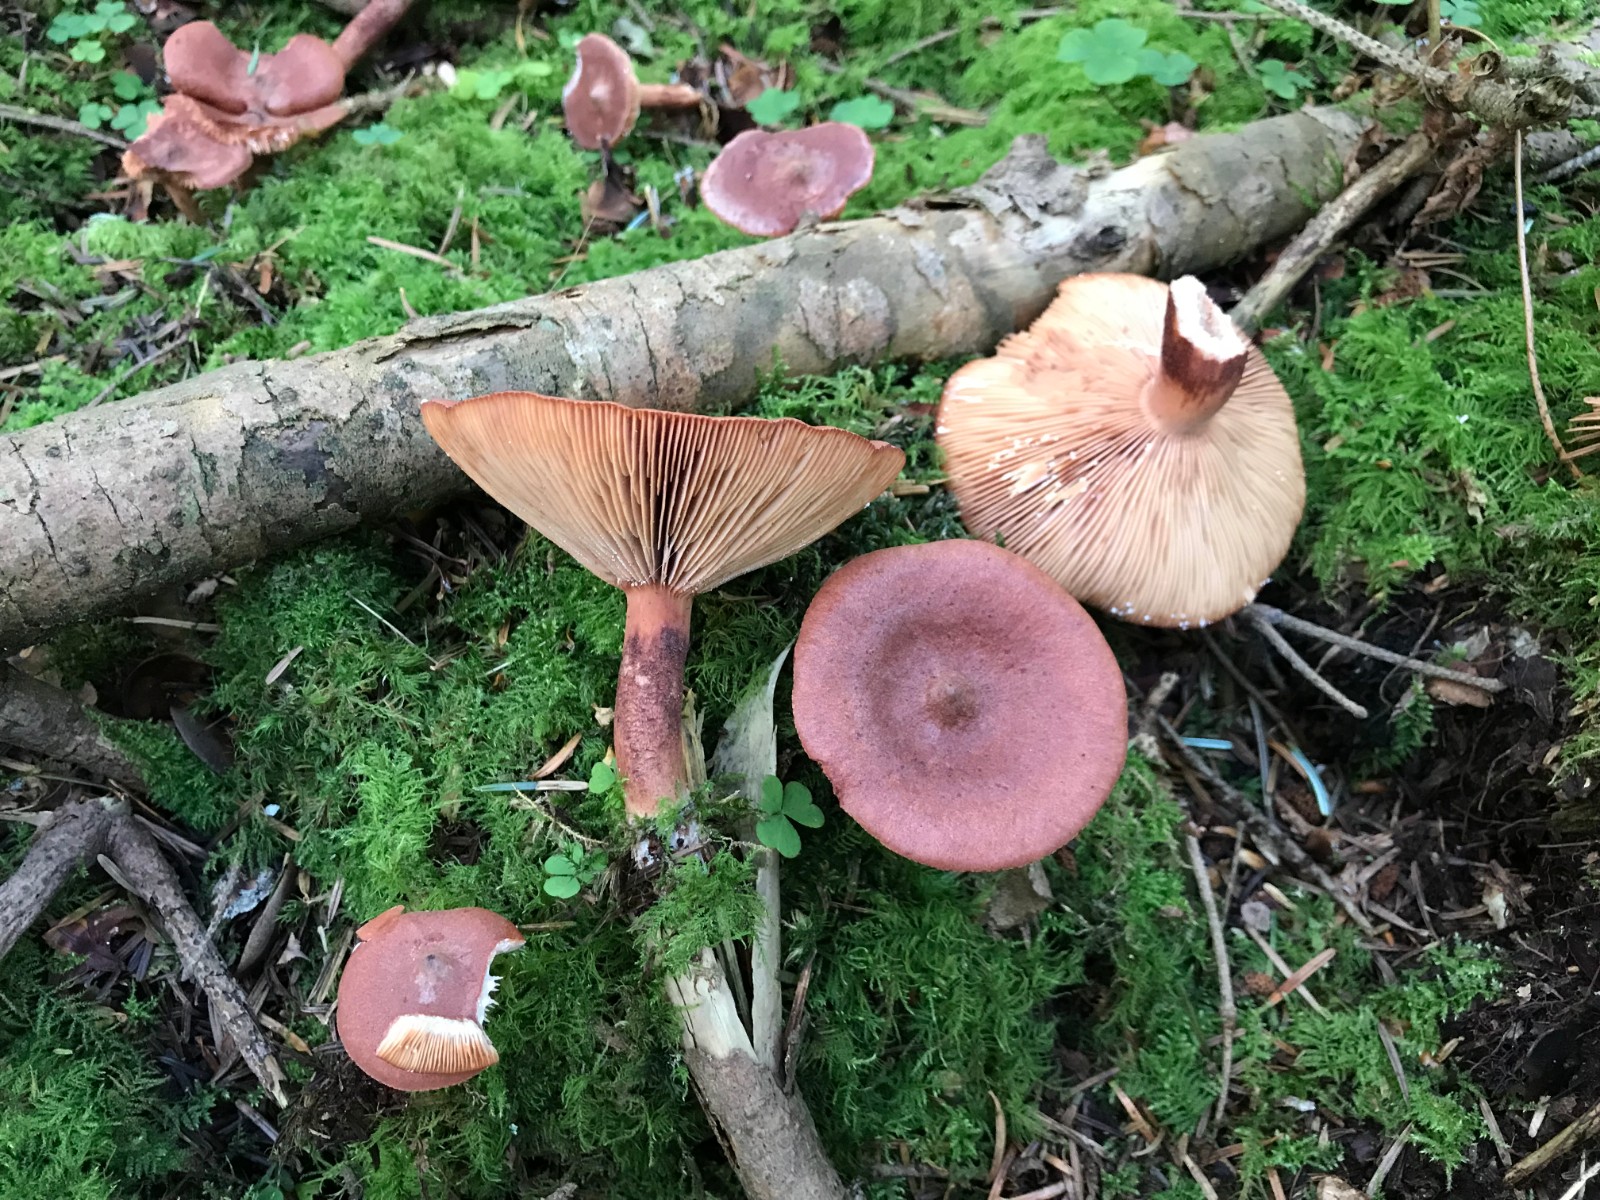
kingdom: Fungi
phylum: Basidiomycota
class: Agaricomycetes
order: Russulales
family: Russulaceae
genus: Lactarius
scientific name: Lactarius rufus
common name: rødbrun mælkehat
